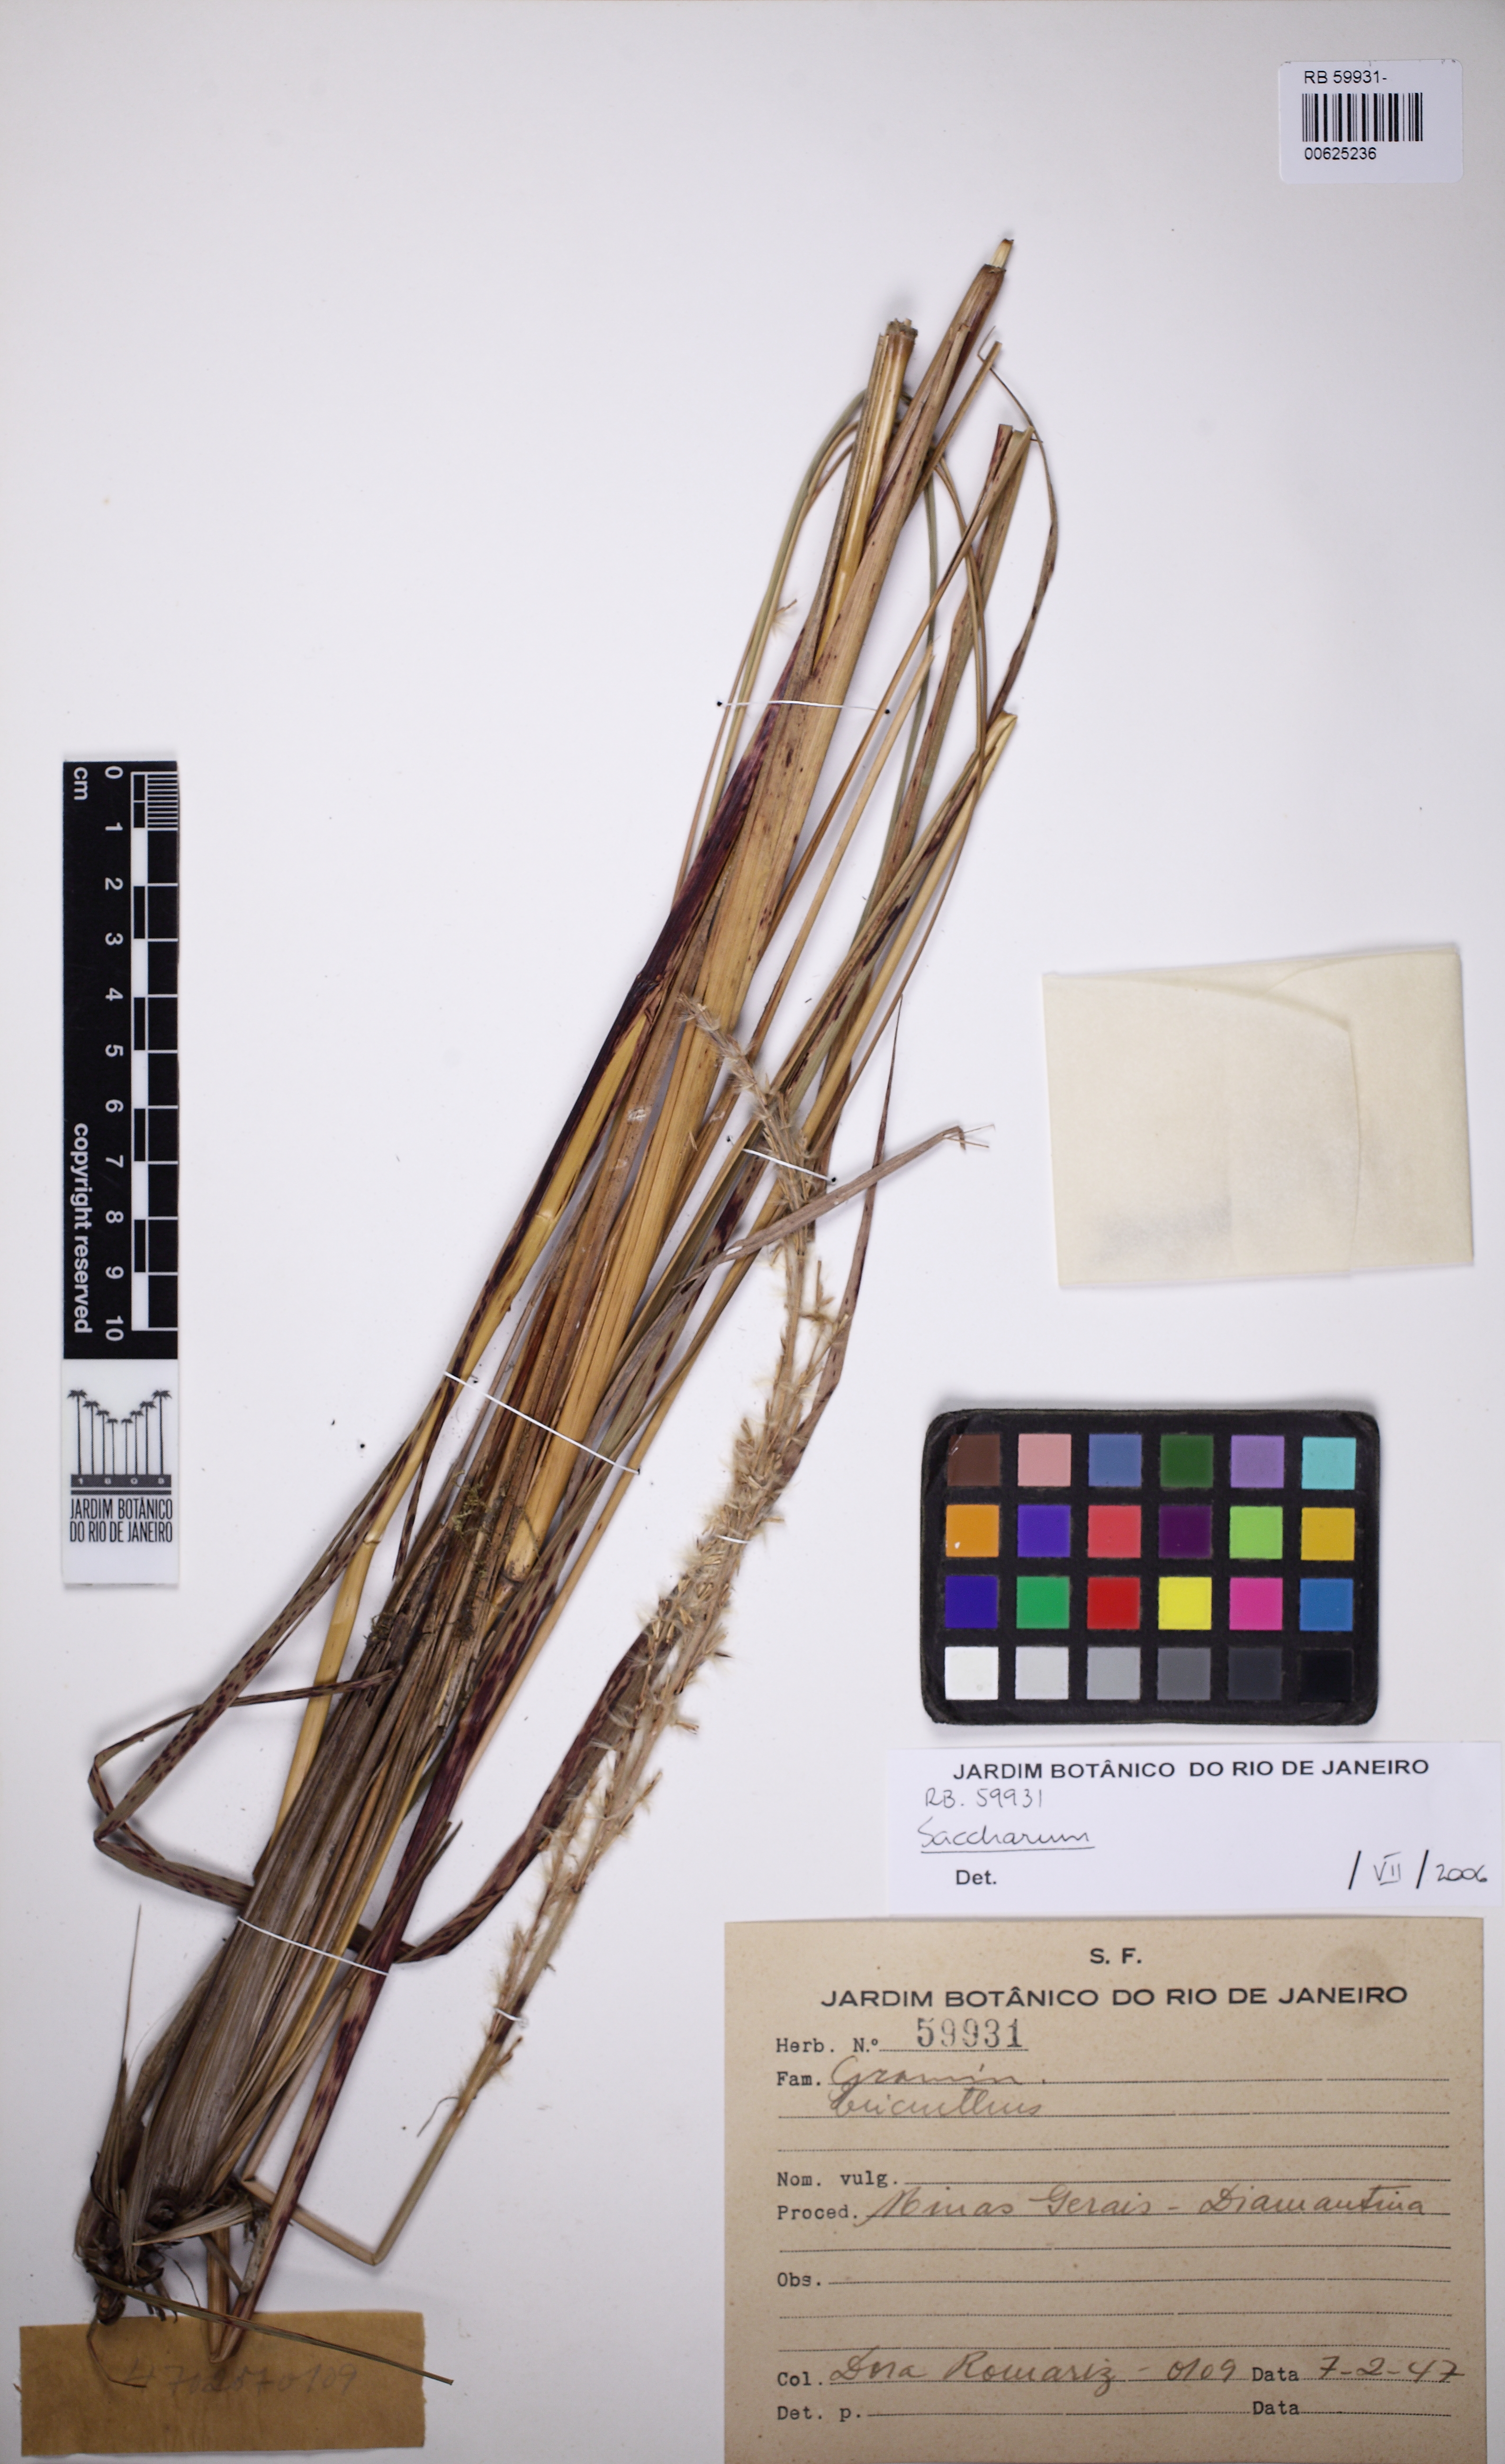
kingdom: Plantae
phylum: Tracheophyta
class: Liliopsida
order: Poales
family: Poaceae
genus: Saccharum
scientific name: Saccharum
